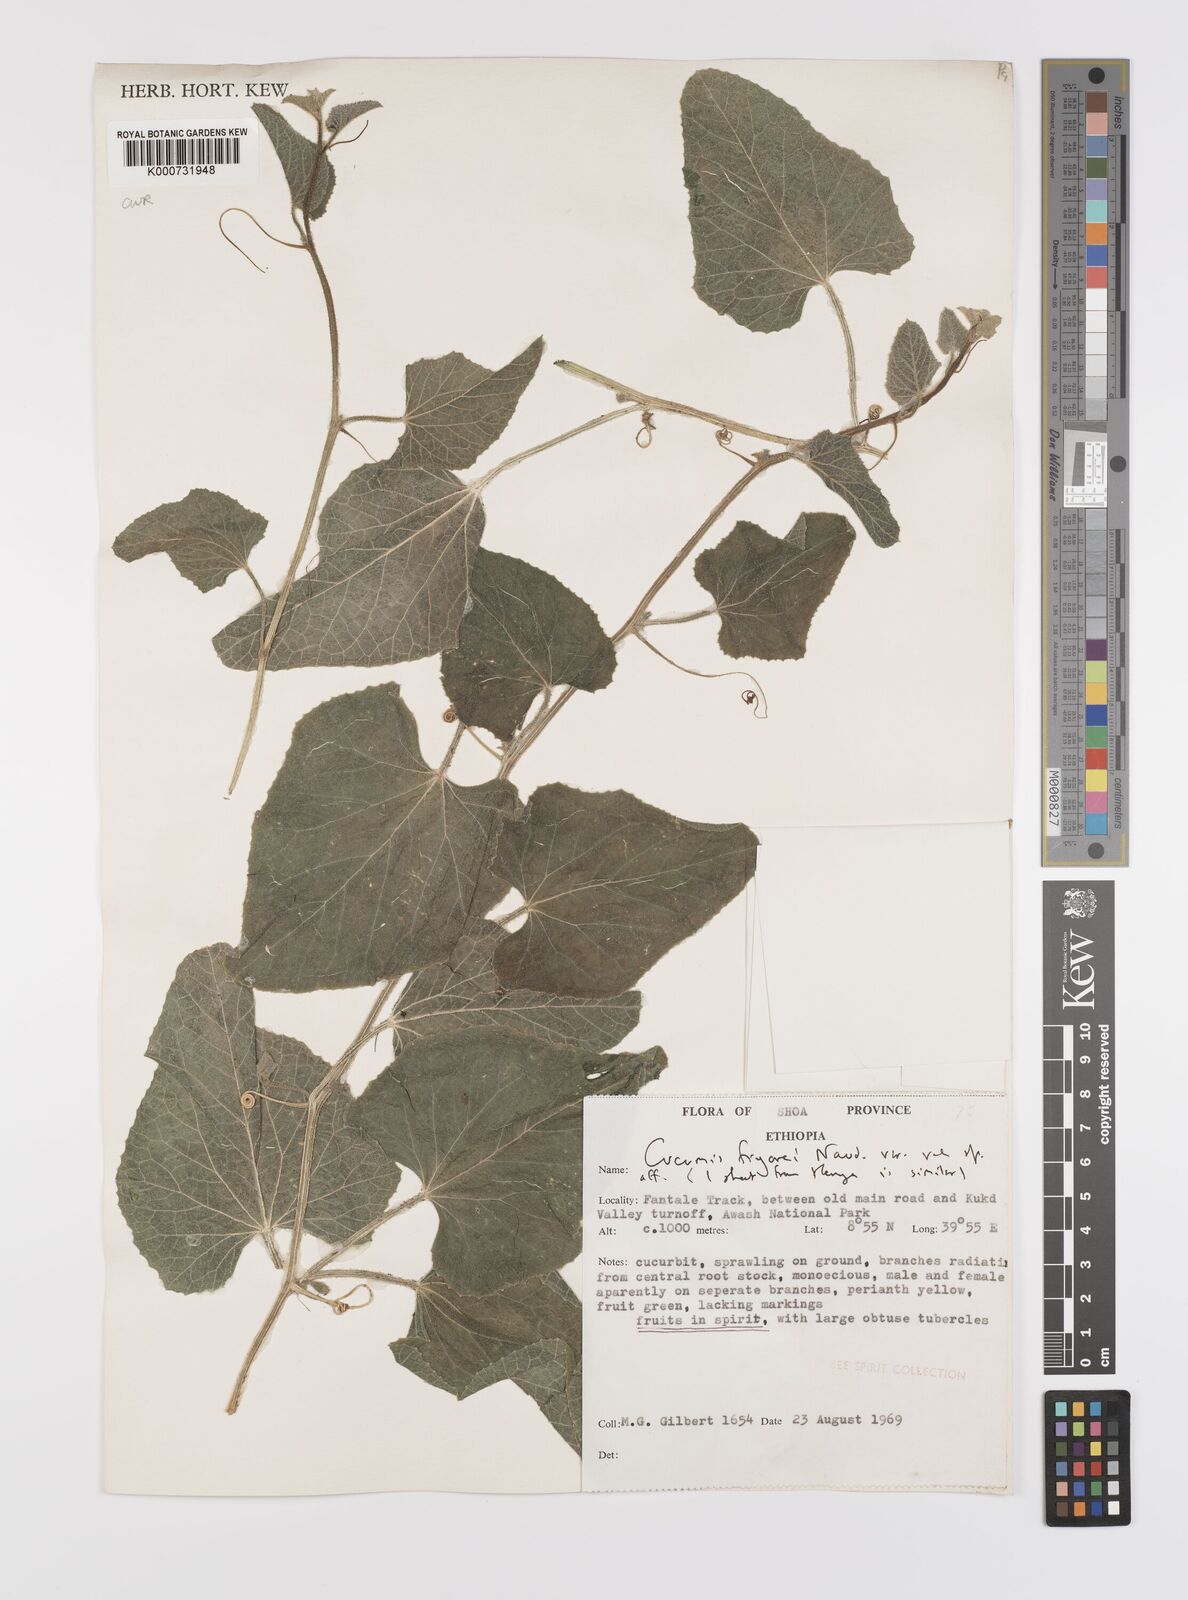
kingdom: Plantae
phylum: Tracheophyta
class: Magnoliopsida
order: Cucurbitales
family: Cucurbitaceae
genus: Cucumis
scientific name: Cucumis
